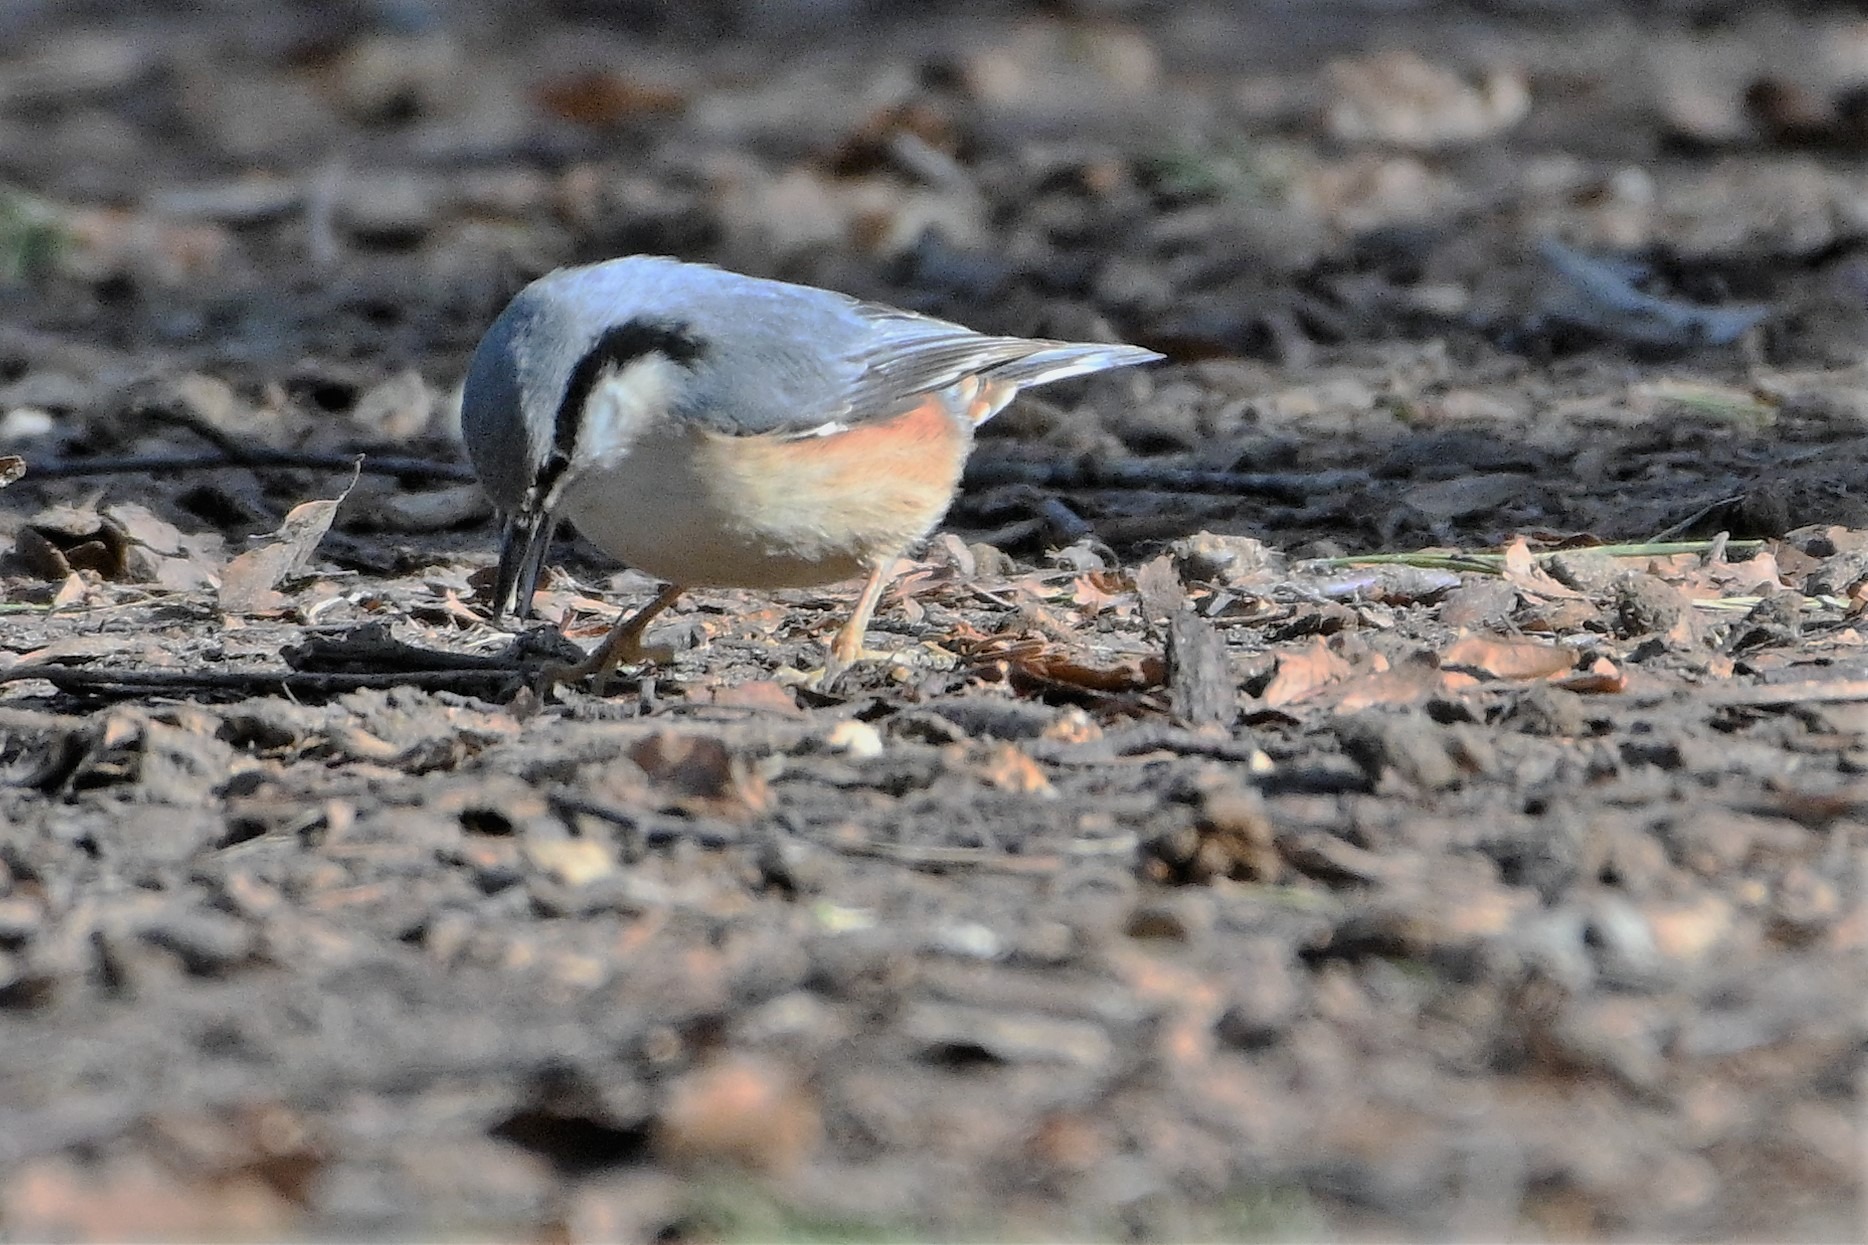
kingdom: Animalia
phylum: Chordata
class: Aves
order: Passeriformes
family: Sittidae
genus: Sitta
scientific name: Sitta europaea
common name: Spætmejse
